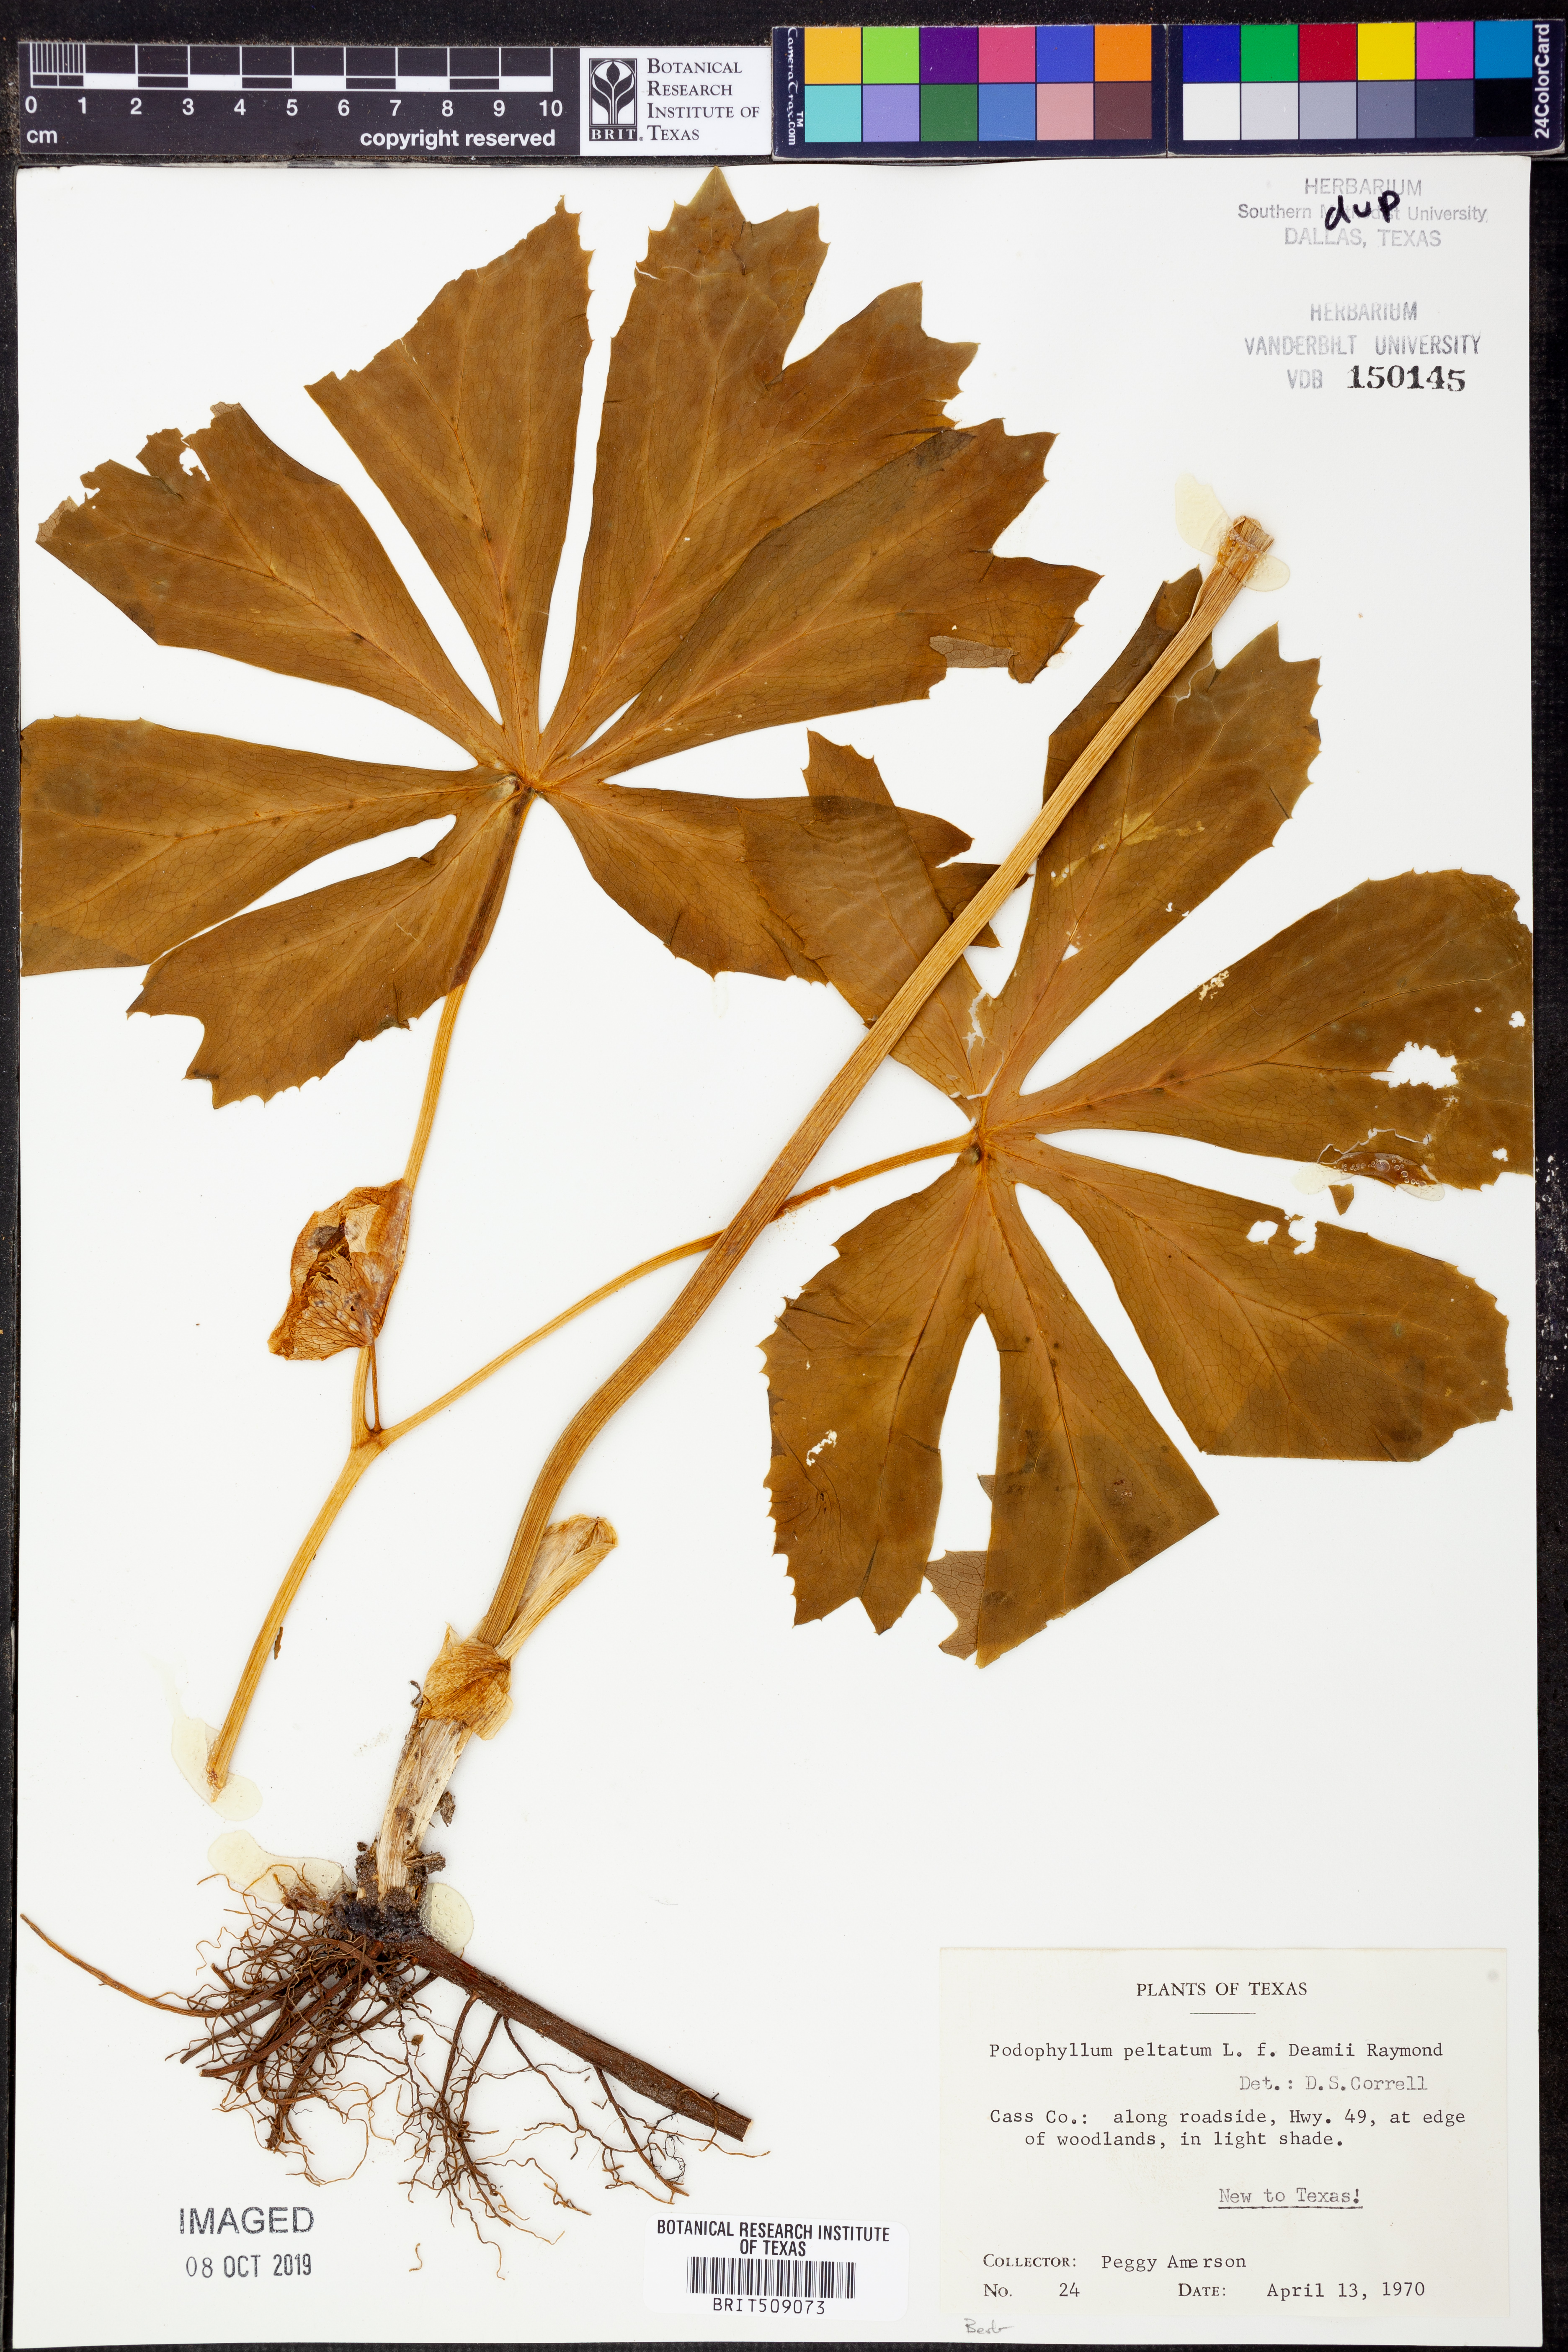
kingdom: Plantae
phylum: Tracheophyta
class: Magnoliopsida
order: Ranunculales
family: Berberidaceae
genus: Podophyllum
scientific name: Podophyllum peltatum
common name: Wild mandrake
